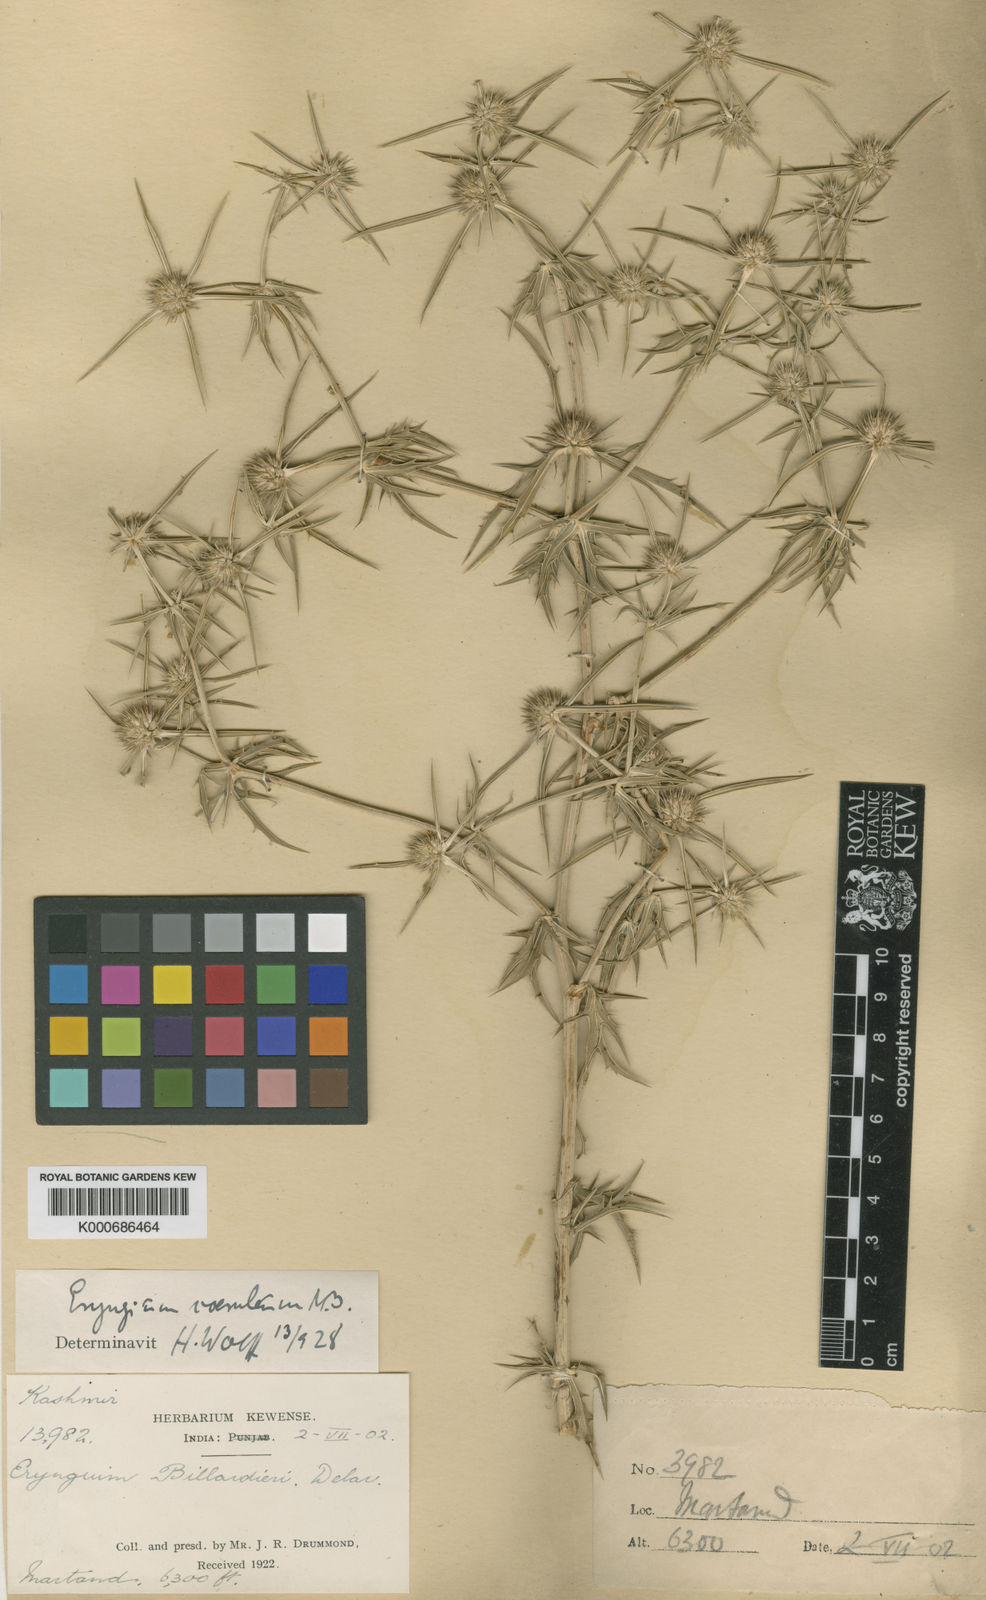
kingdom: Plantae
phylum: Tracheophyta
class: Magnoliopsida
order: Apiales
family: Apiaceae
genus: Eryngium
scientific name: Eryngium caeruleum
